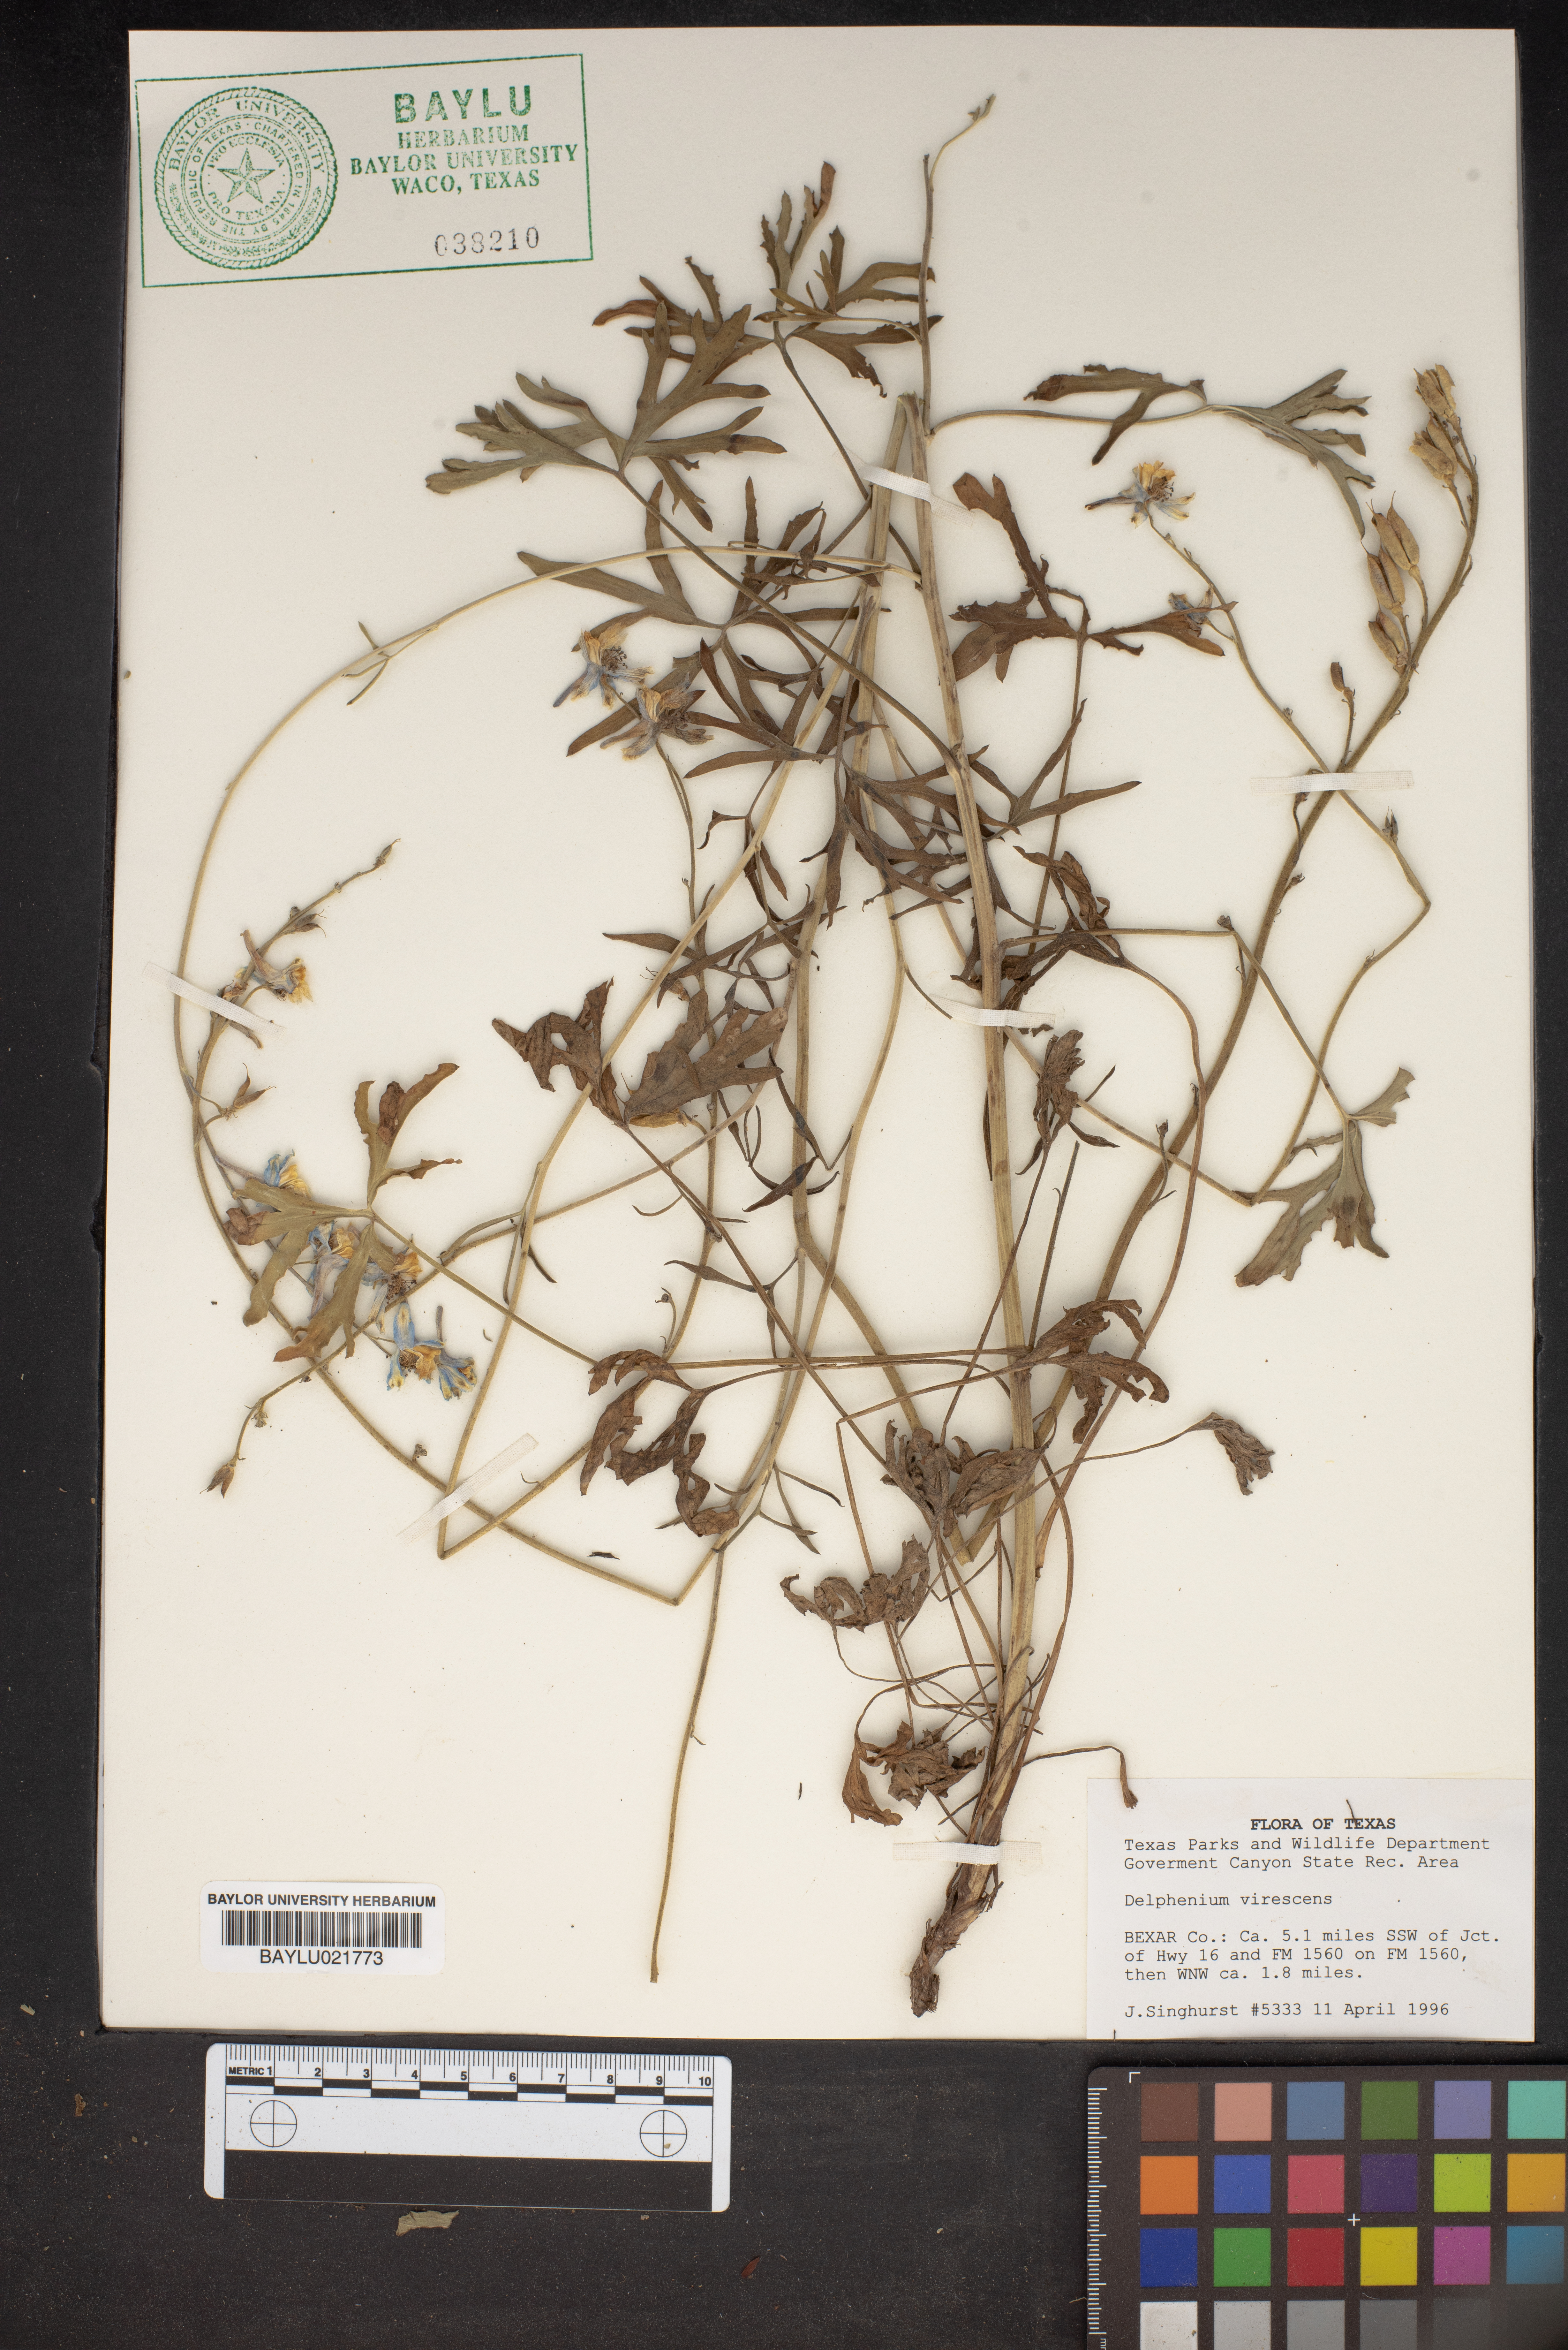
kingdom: Plantae
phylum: Tracheophyta
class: Magnoliopsida
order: Ranunculales
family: Ranunculaceae
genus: Delphinium
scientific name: Delphinium carolinianum
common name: Carolina larkspur
